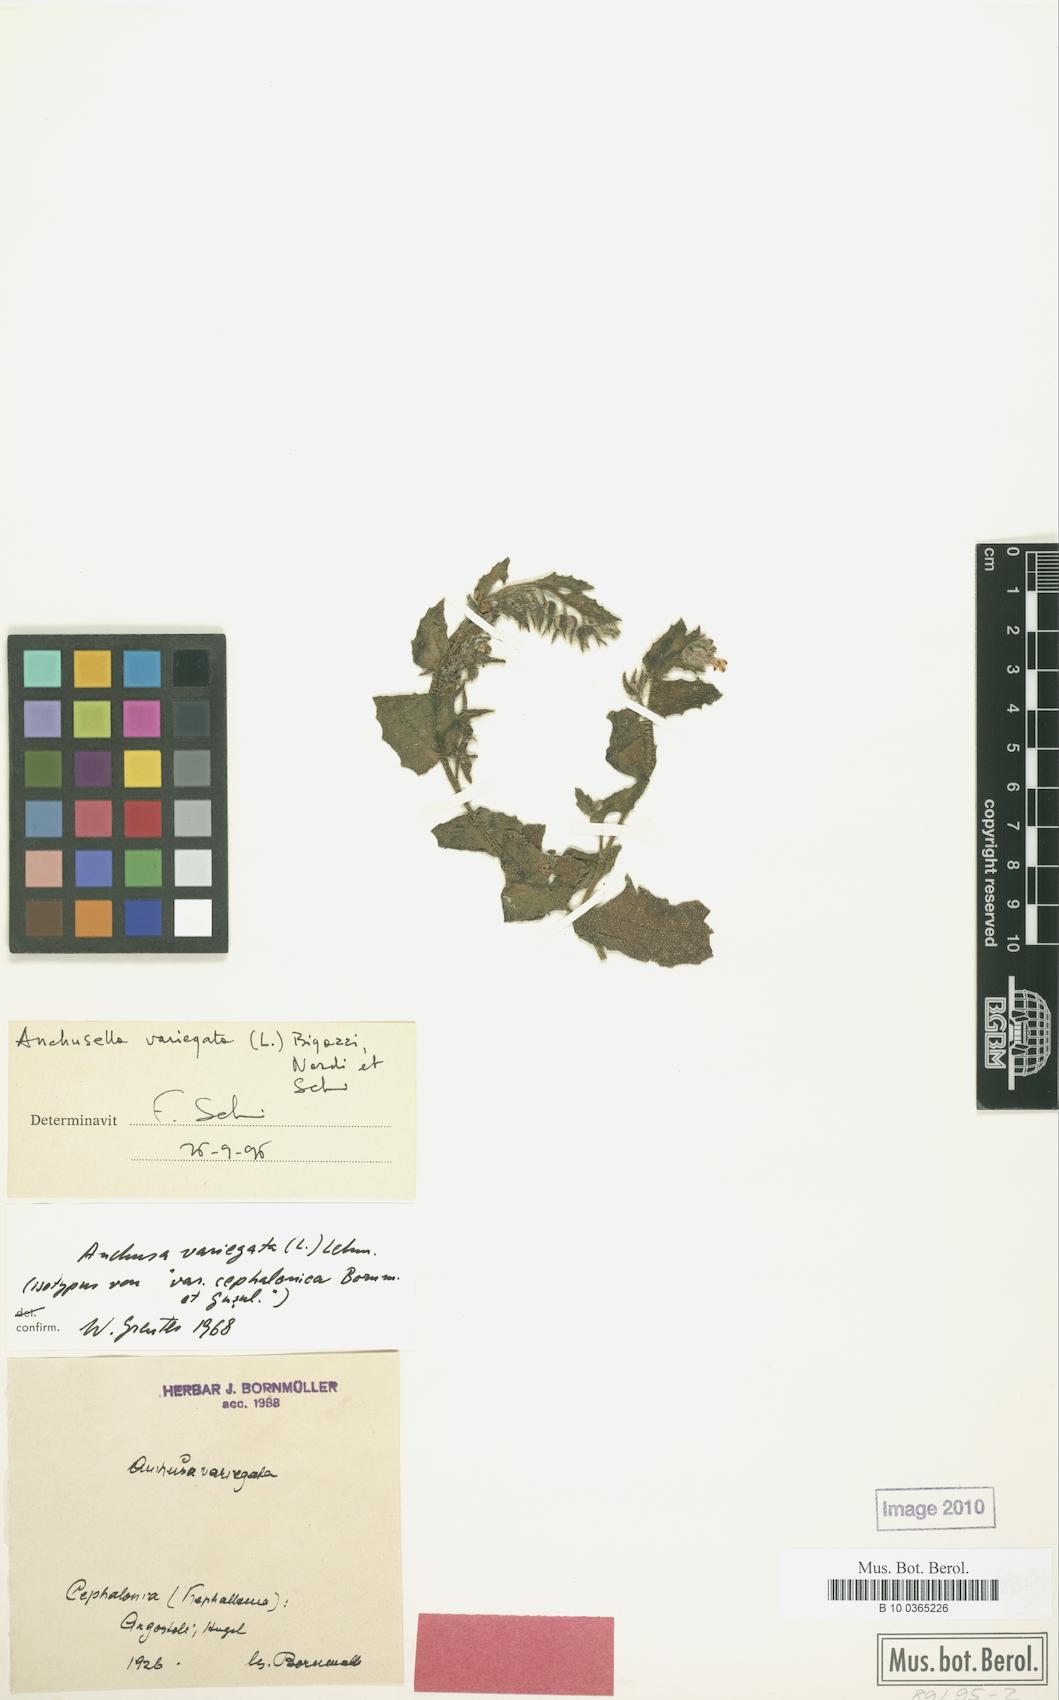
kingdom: Plantae
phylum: Tracheophyta
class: Magnoliopsida
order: Boraginales
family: Boraginaceae
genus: Anchusella
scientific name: Anchusella variegata
